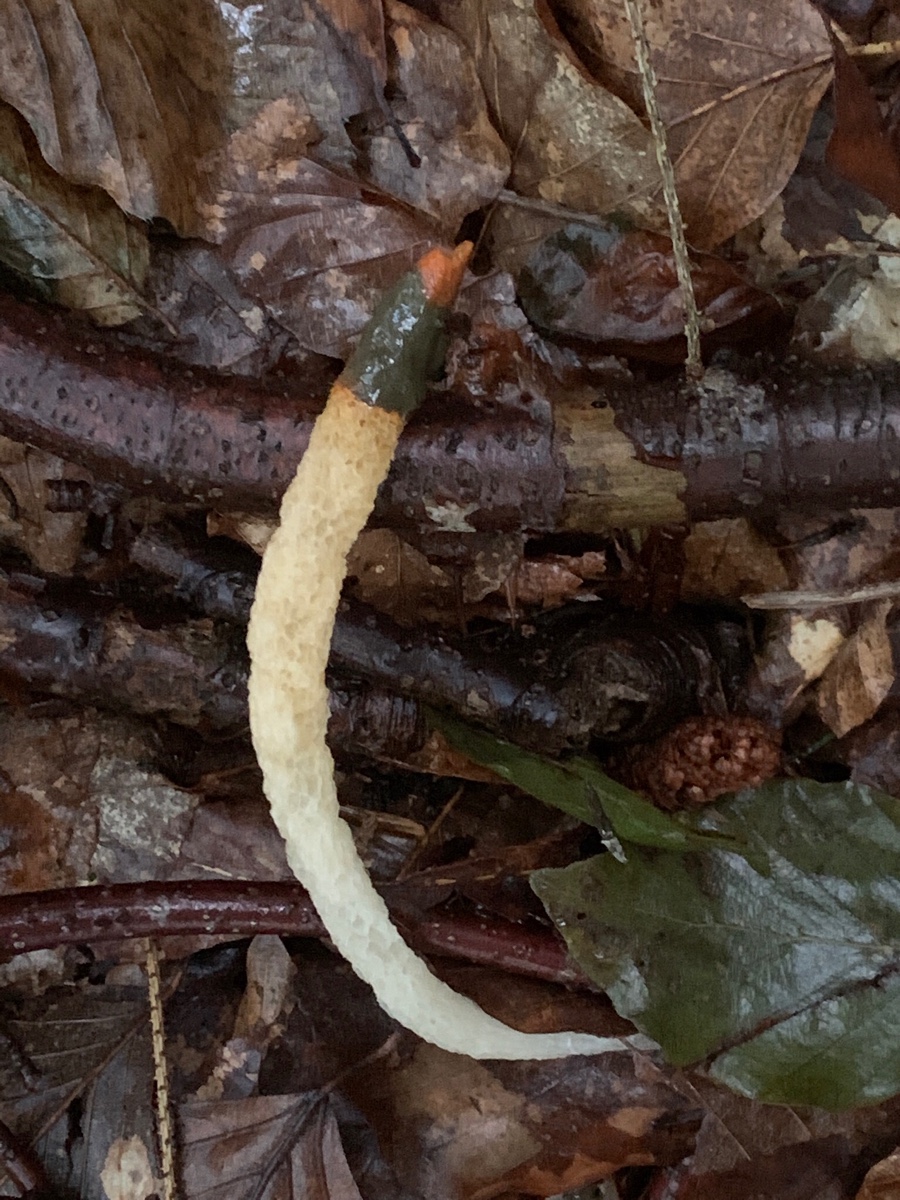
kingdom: Fungi
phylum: Basidiomycota
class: Agaricomycetes
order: Phallales
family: Phallaceae
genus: Mutinus
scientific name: Mutinus caninus
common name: hunde-stinksvamp
